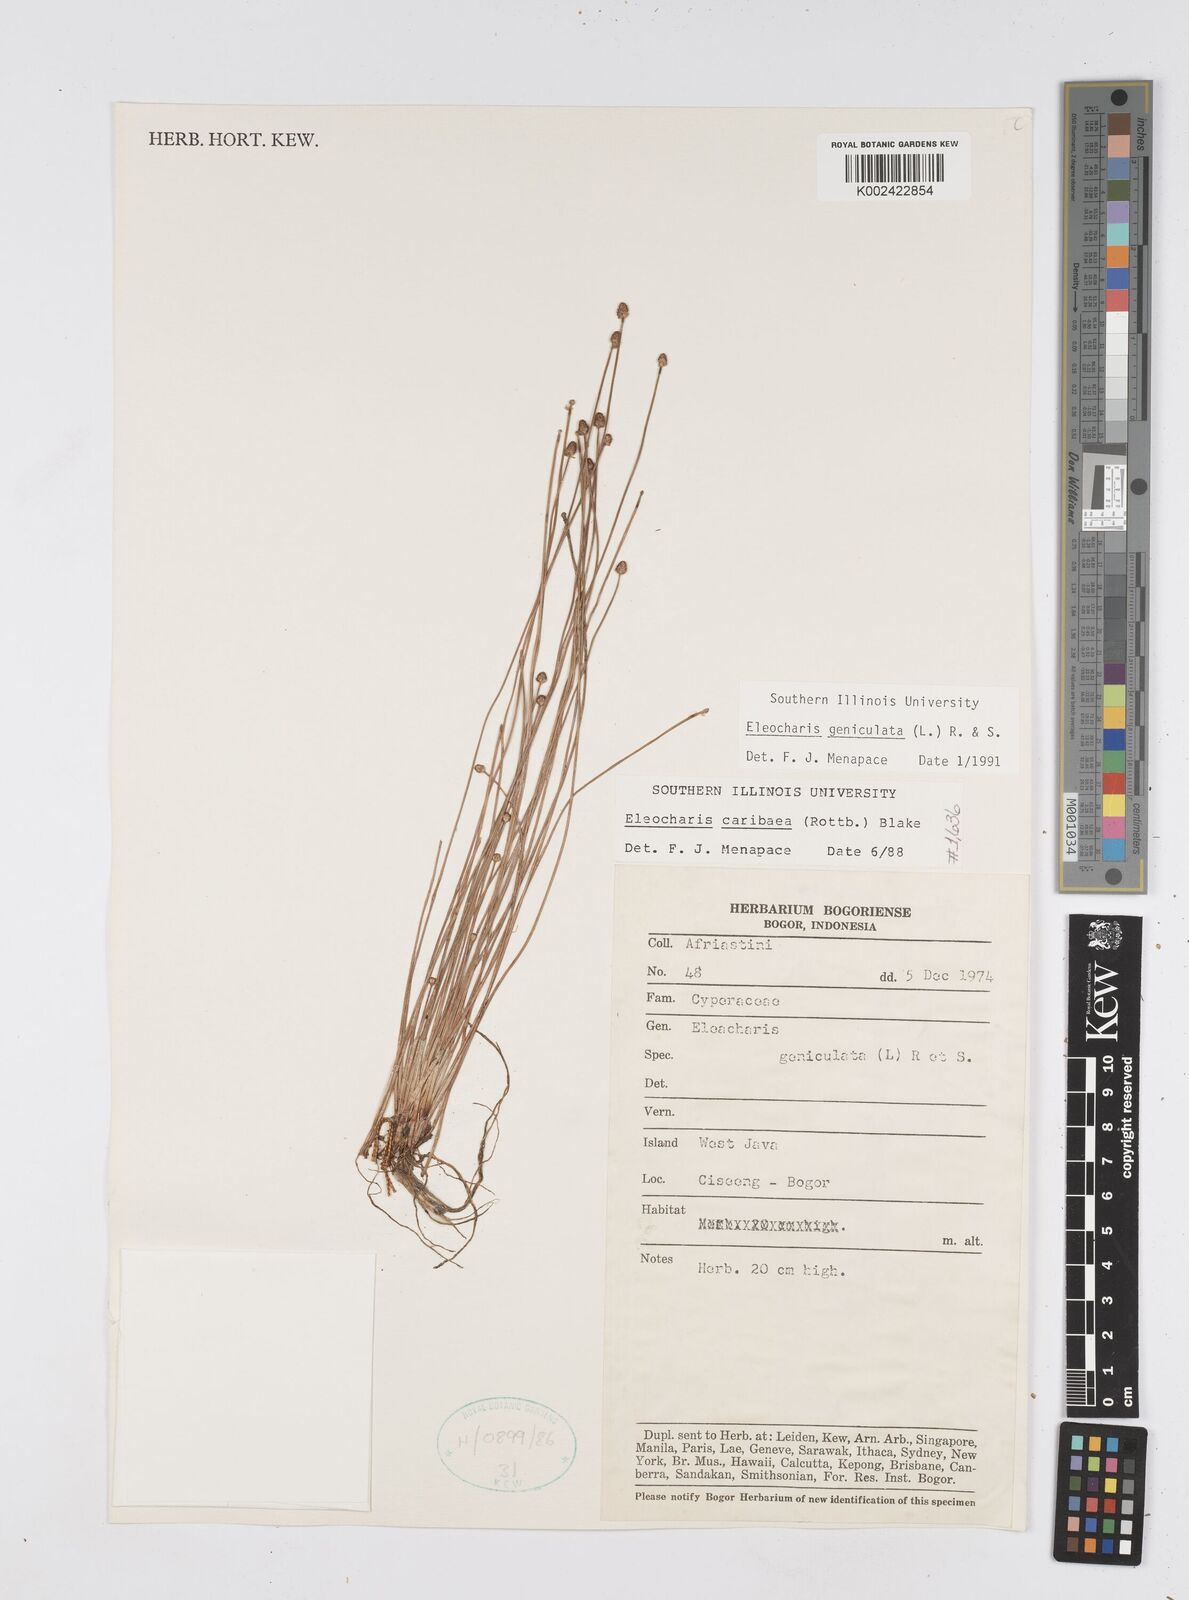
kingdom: Plantae
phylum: Tracheophyta
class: Liliopsida
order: Poales
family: Cyperaceae
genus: Eleocharis
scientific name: Eleocharis geniculata
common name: Canada spikesedge
